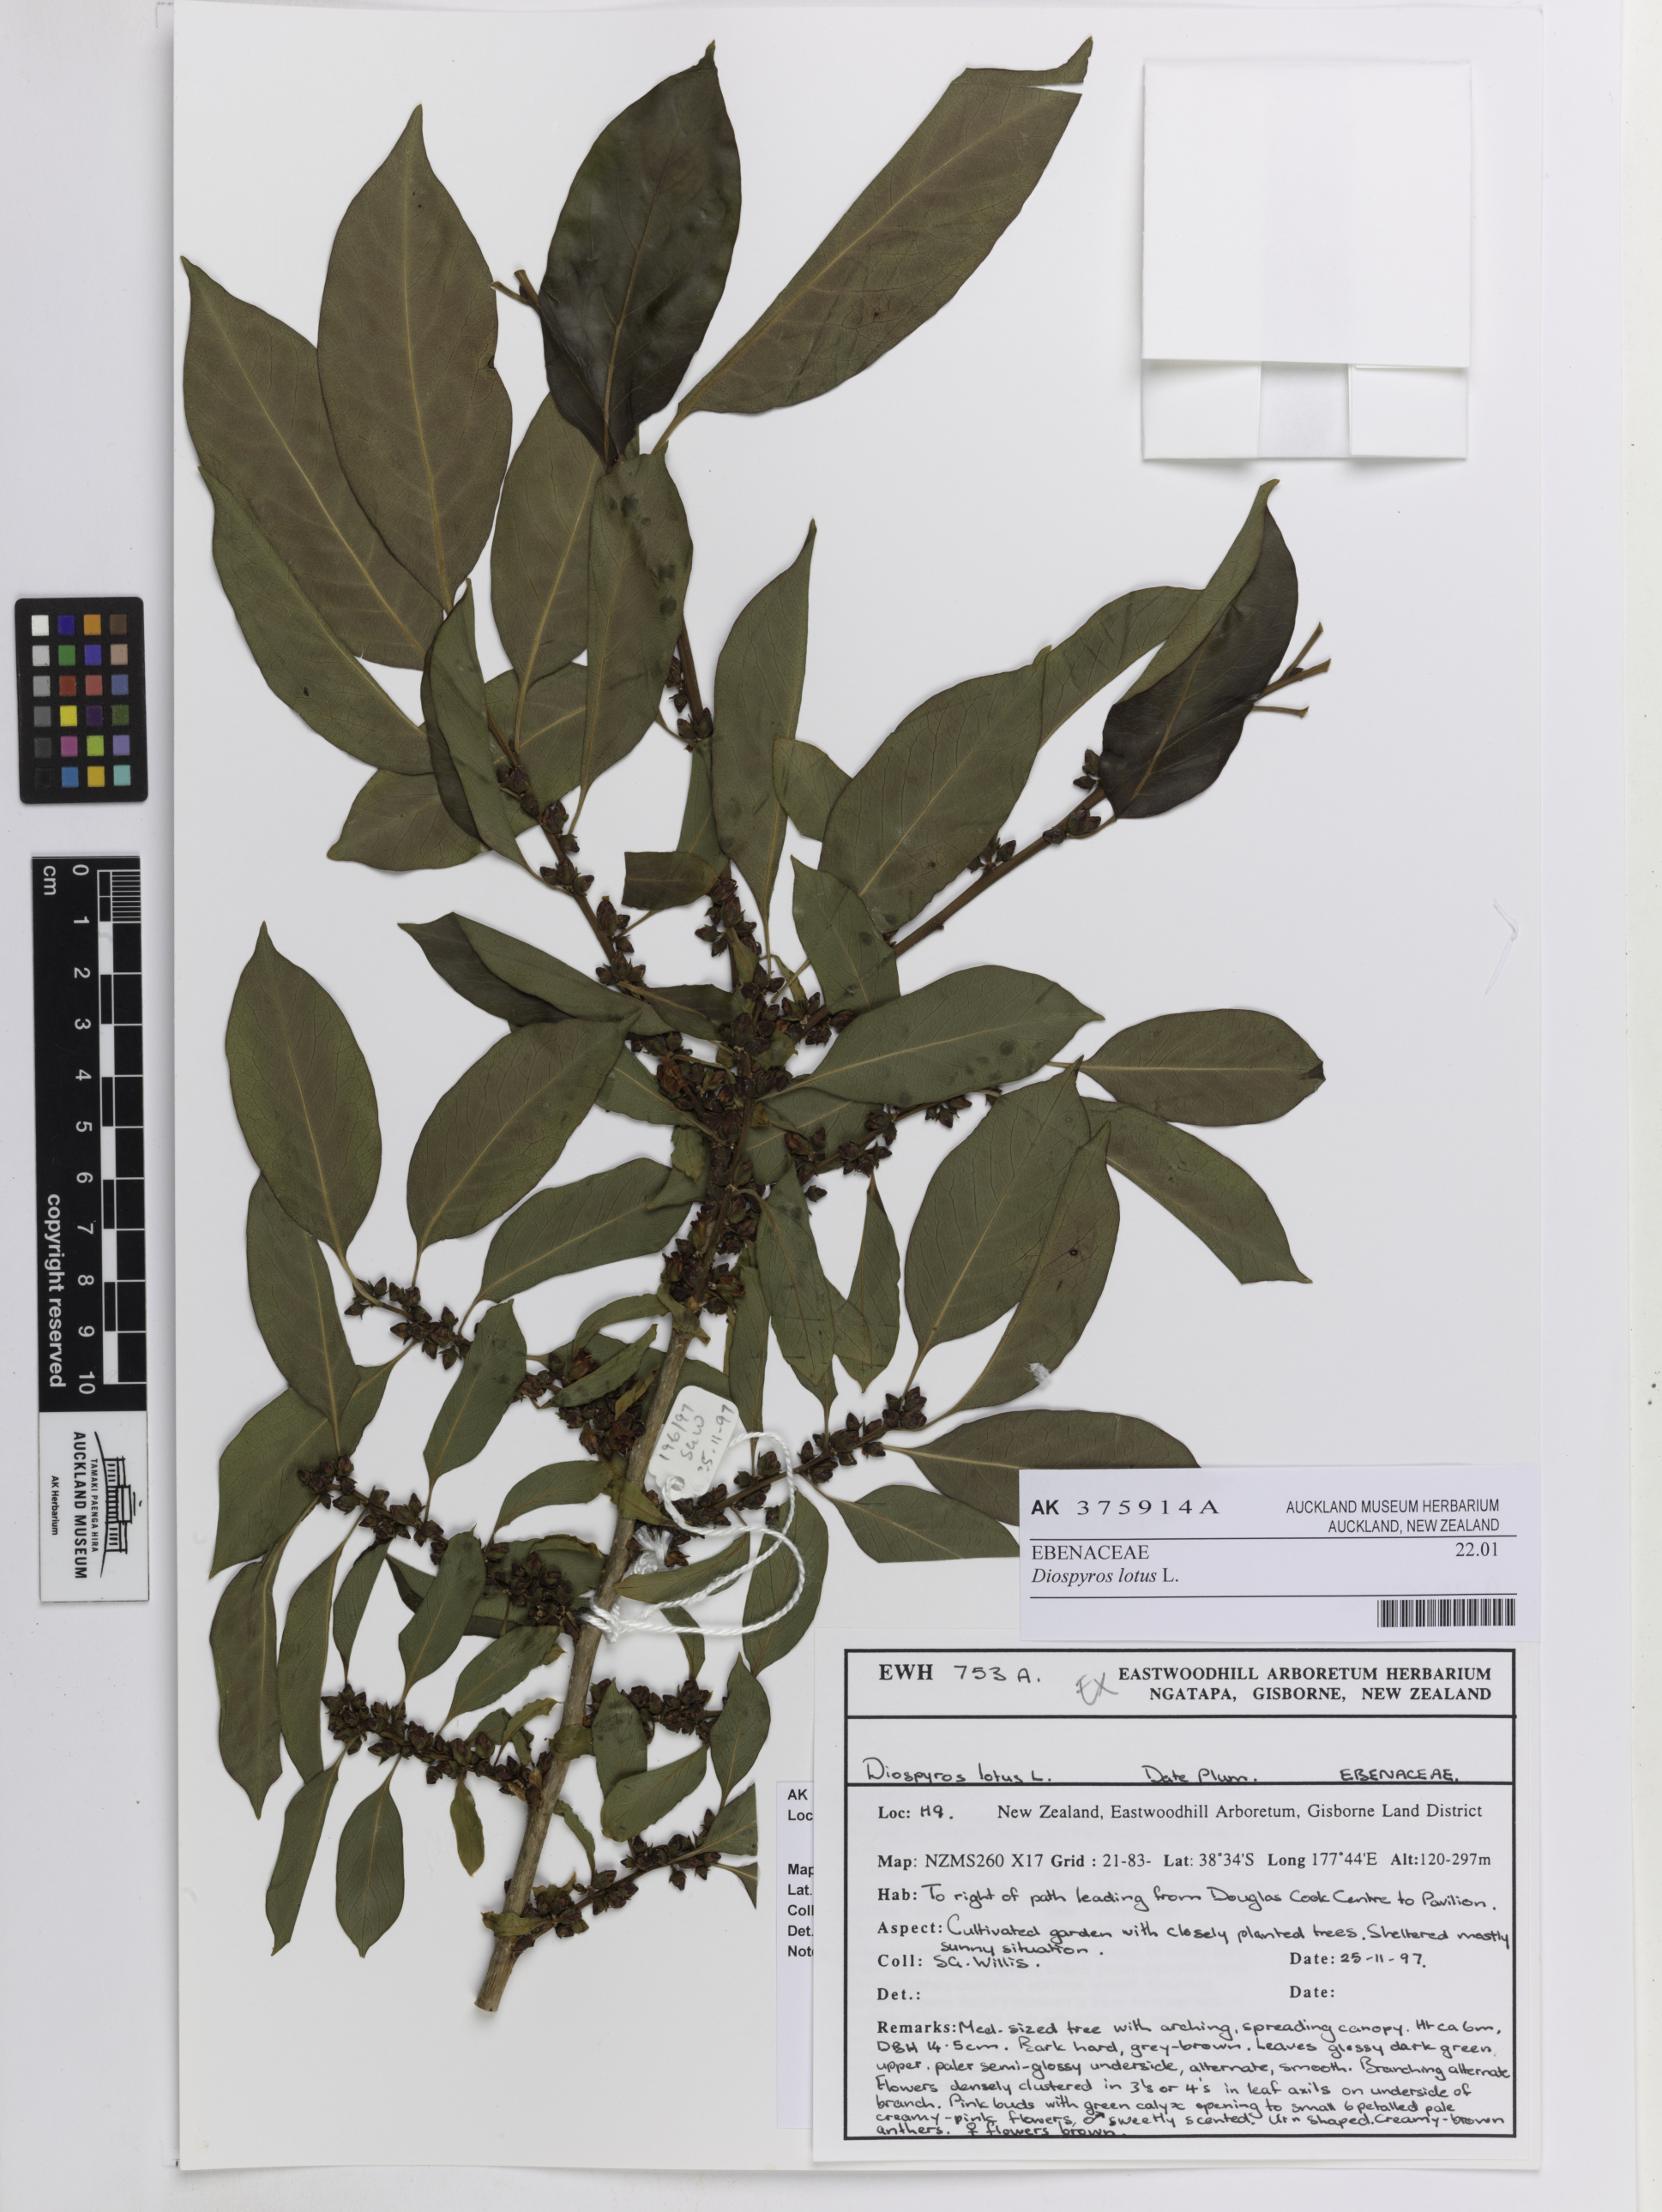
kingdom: Plantae
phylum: Tracheophyta
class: Magnoliopsida
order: Ericales
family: Ebenaceae
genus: Diospyros
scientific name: Diospyros lotus
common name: Date-plum
